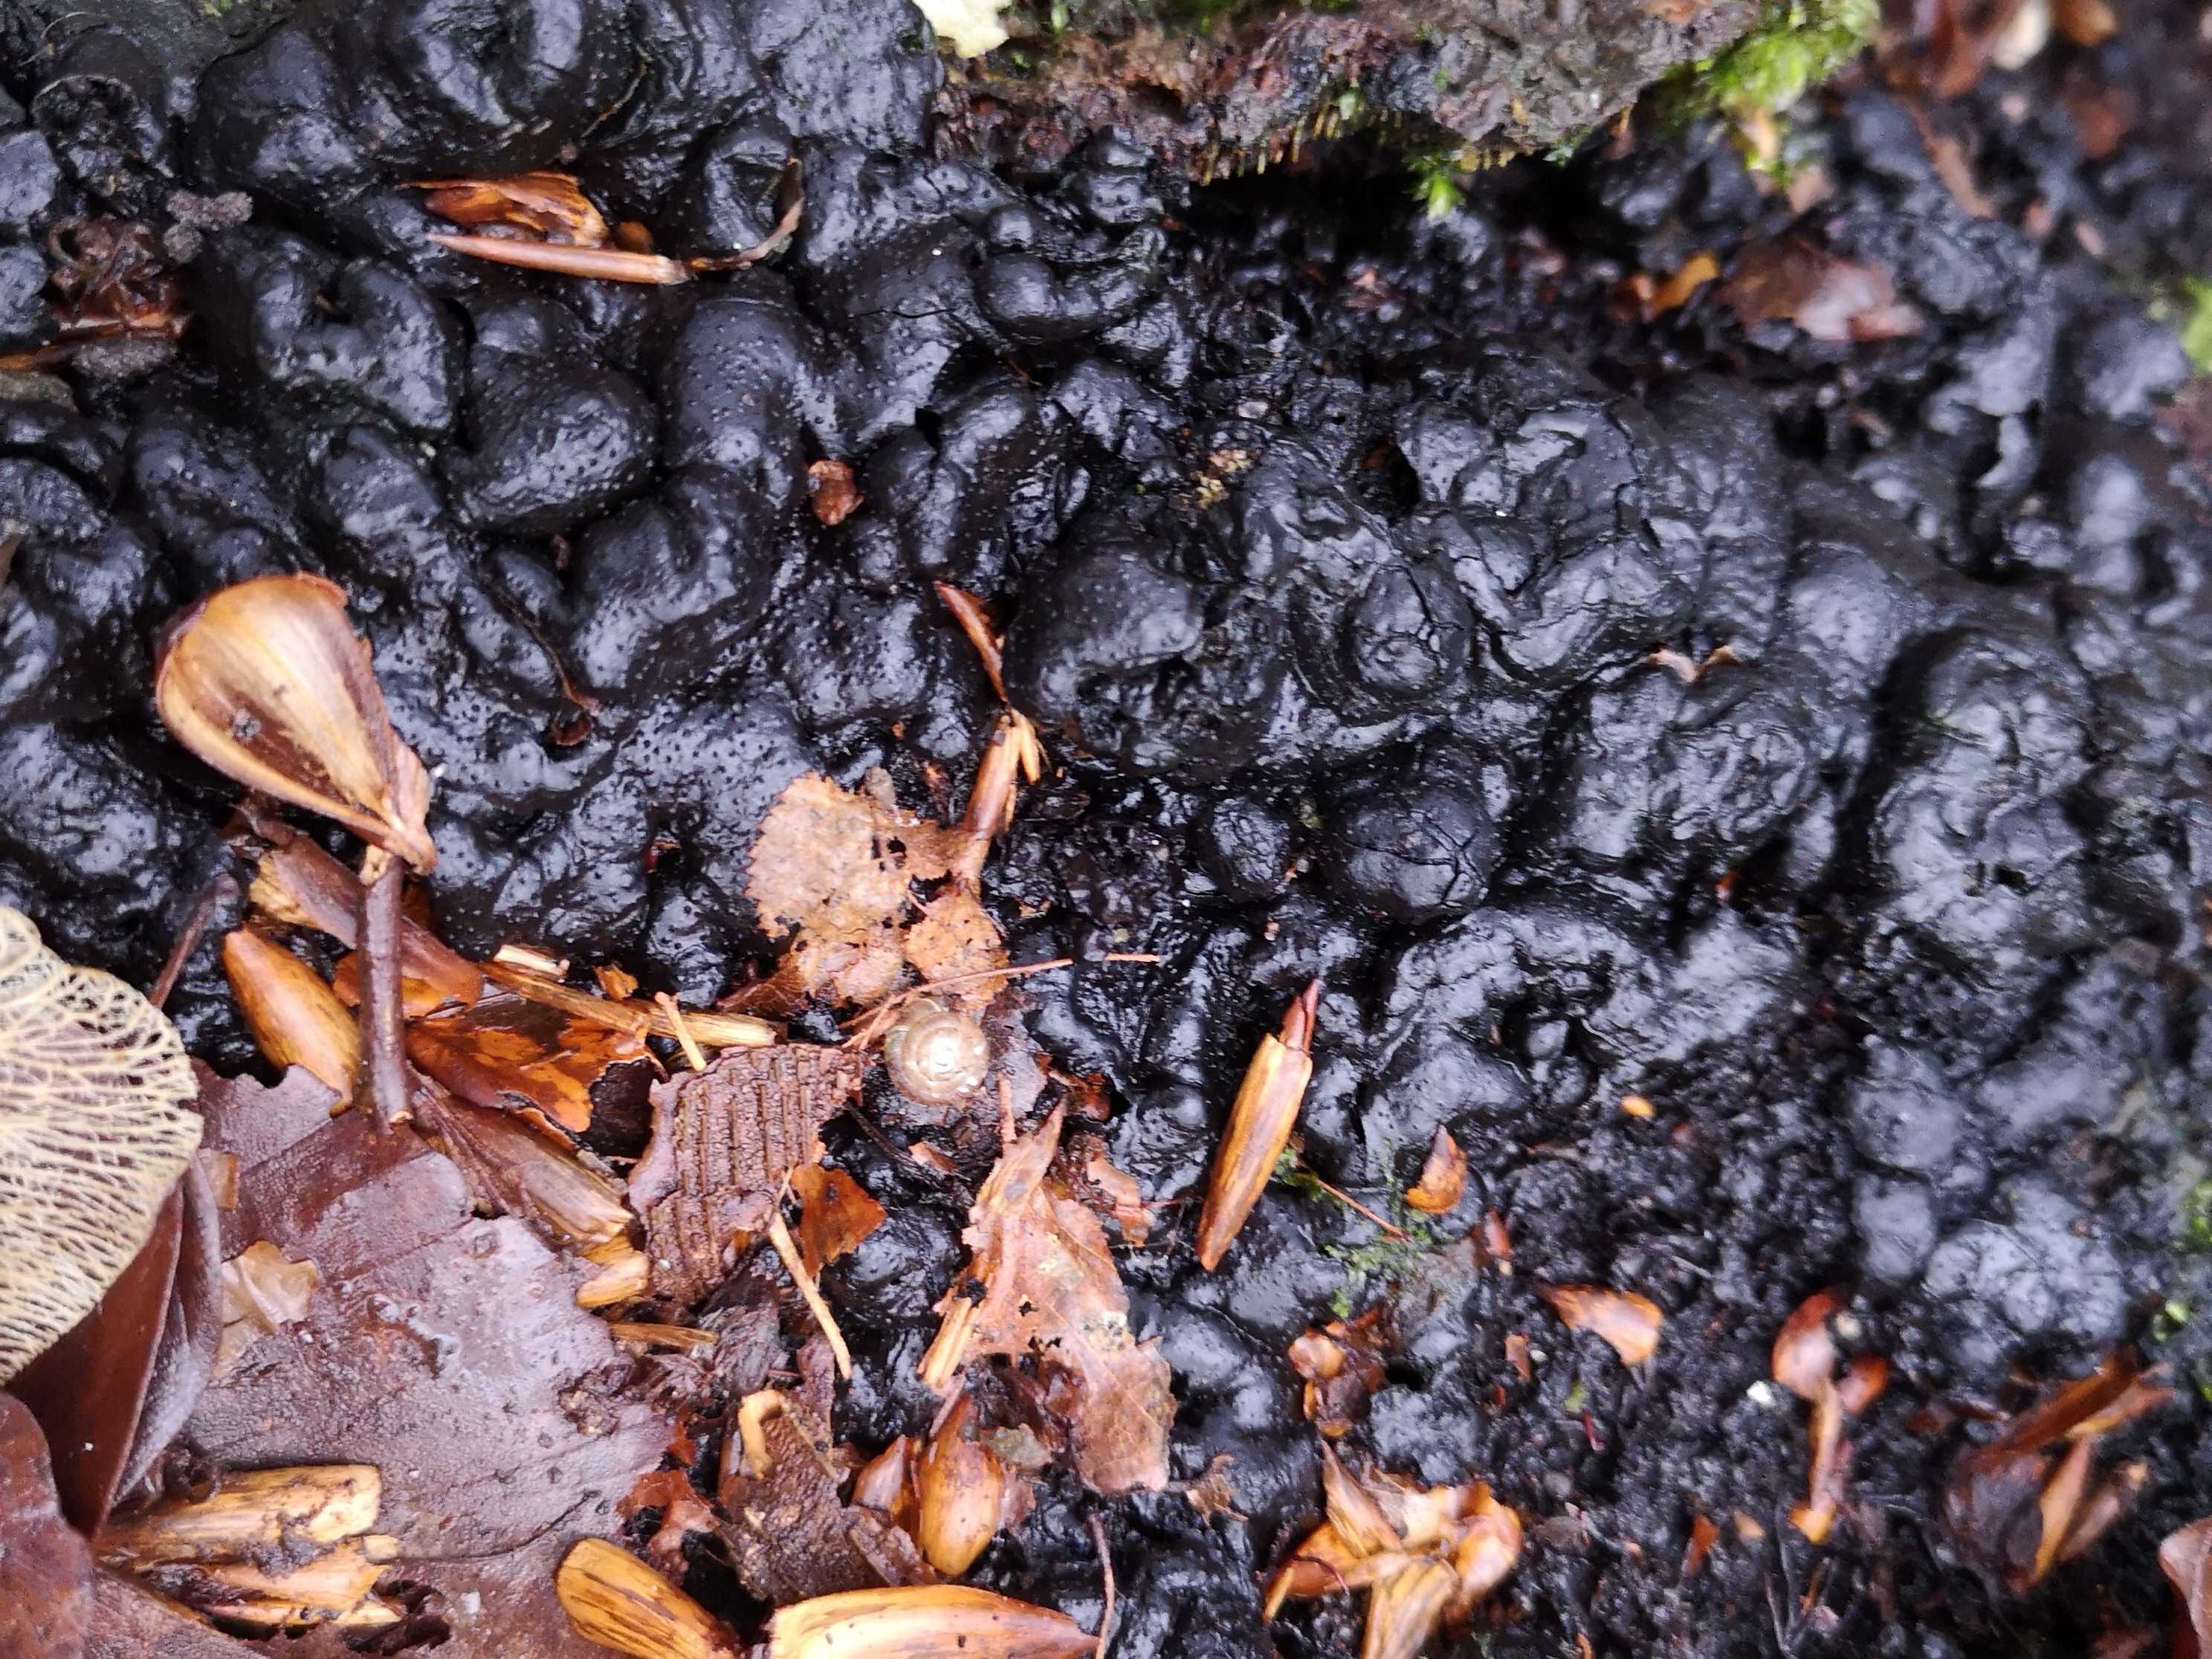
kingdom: Fungi
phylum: Ascomycota
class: Sordariomycetes
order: Xylariales
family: Xylariaceae
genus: Kretzschmaria
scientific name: Kretzschmaria deusta
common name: stor kulsvamp
